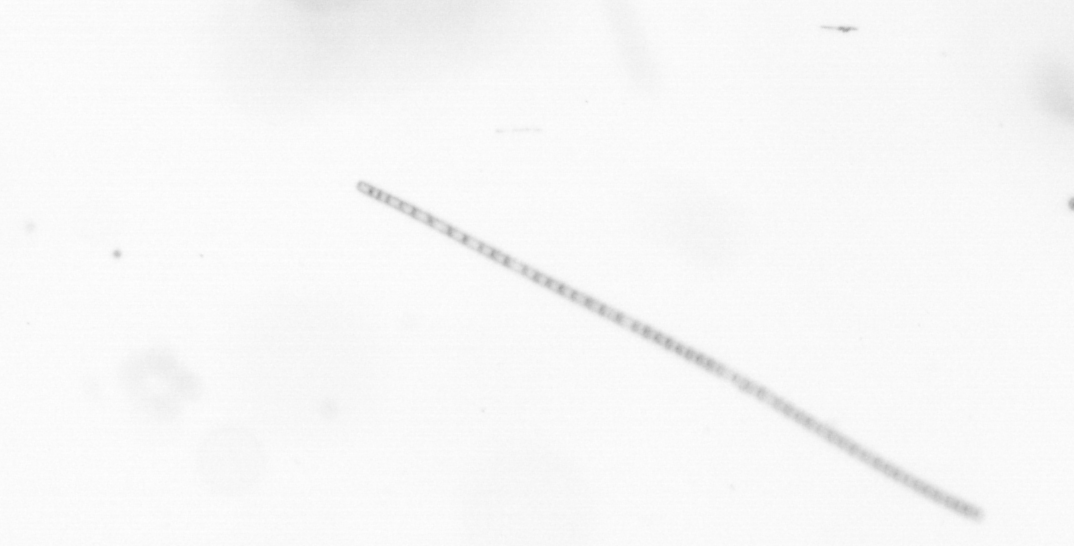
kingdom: Chromista
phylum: Ochrophyta
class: Bacillariophyceae
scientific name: Bacillariophyceae
